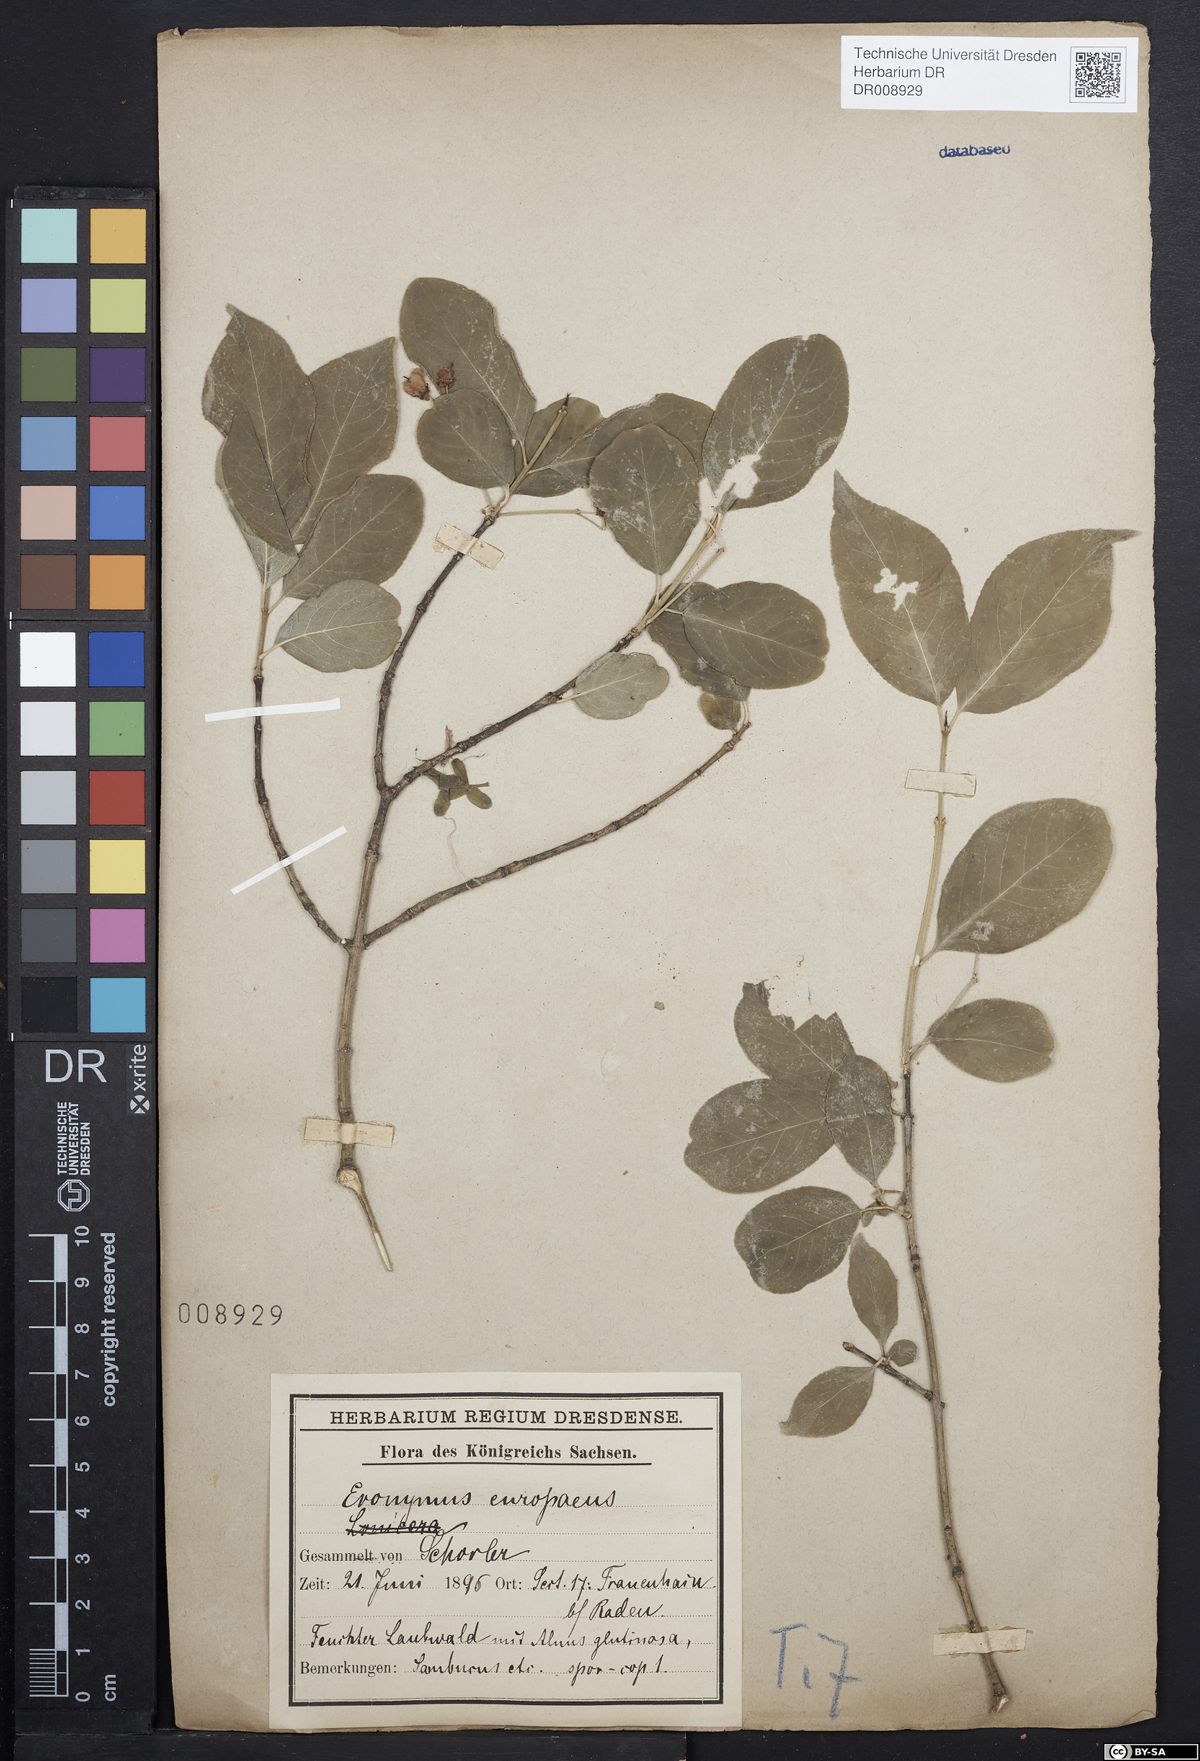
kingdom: Plantae
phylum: Tracheophyta
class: Magnoliopsida
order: Celastrales
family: Celastraceae
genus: Euonymus
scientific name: Euonymus europaeus
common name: Spindle
